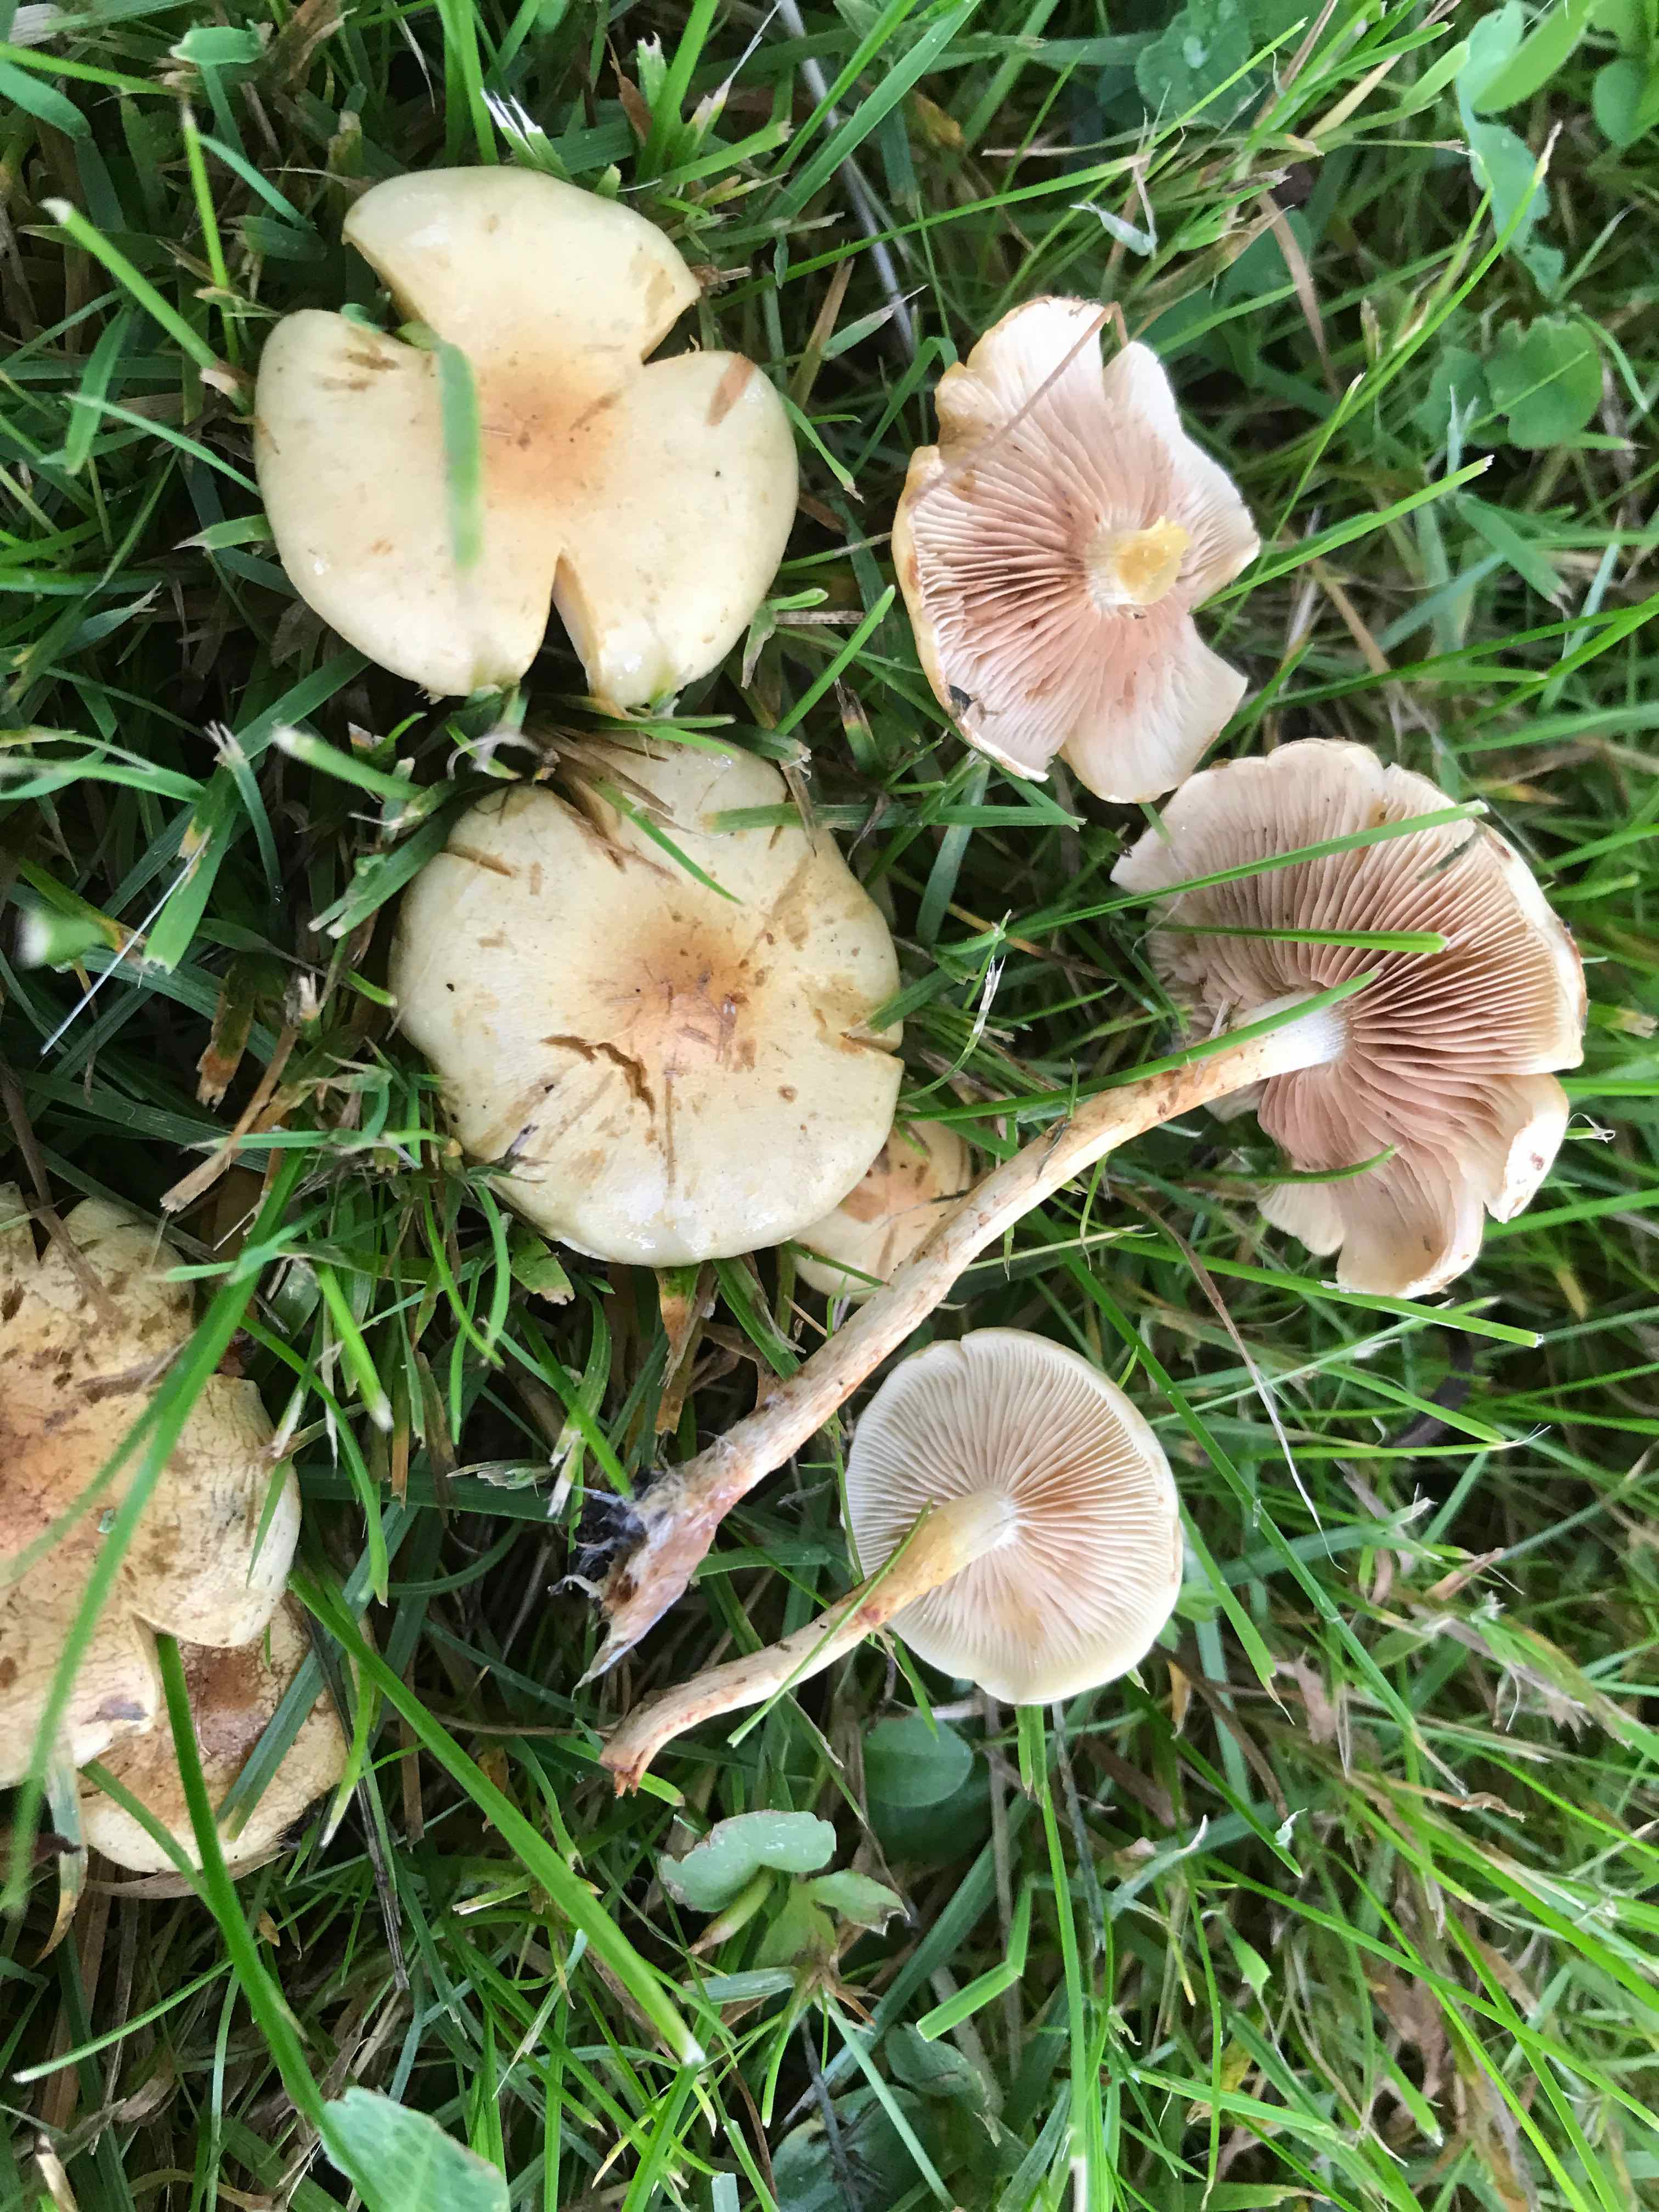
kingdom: Fungi
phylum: Basidiomycota
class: Agaricomycetes
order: Agaricales
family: Strophariaceae
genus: Pholiota
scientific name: Pholiota conissans
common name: pile-skælhat
